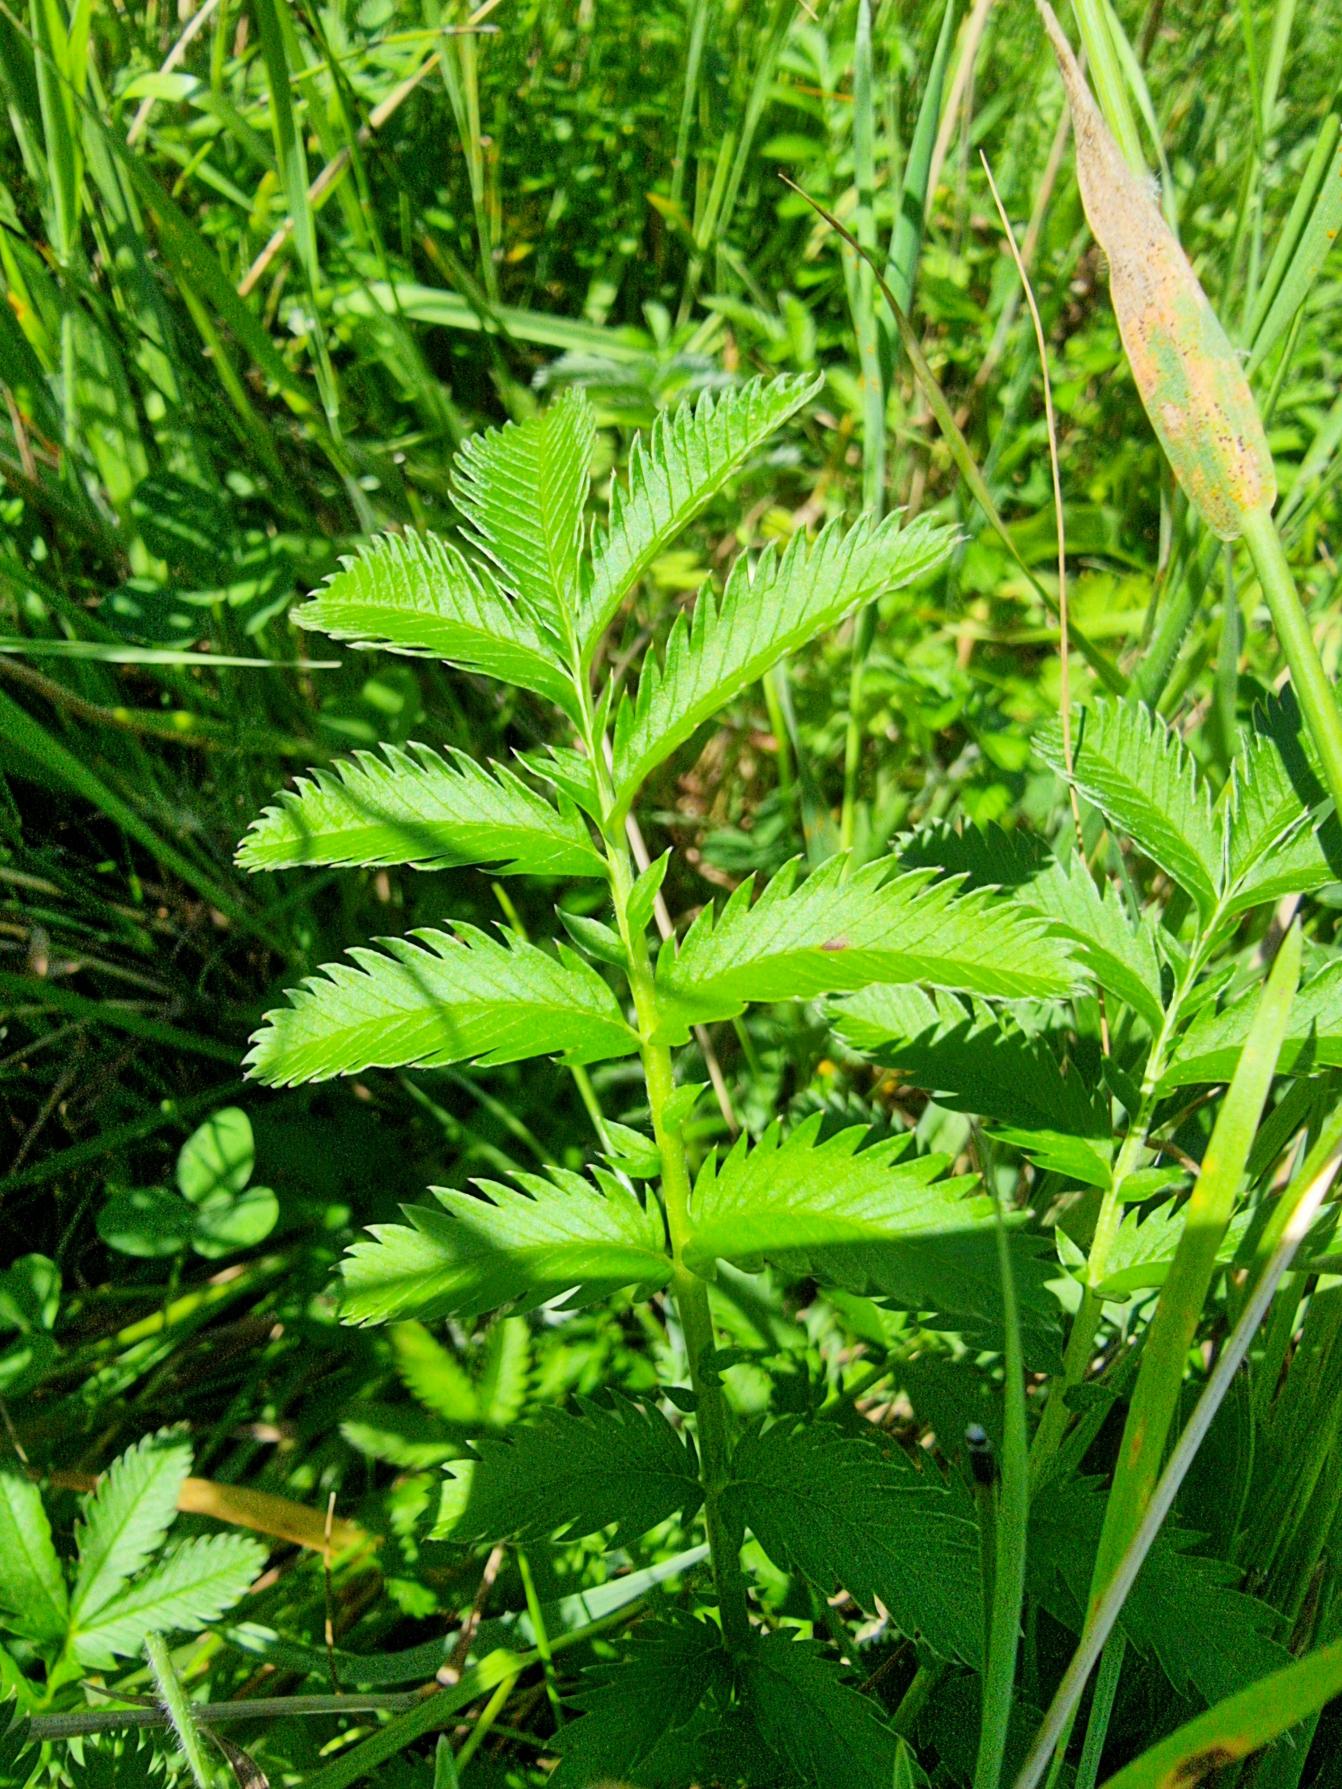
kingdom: Plantae
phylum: Tracheophyta
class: Magnoliopsida
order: Rosales
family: Rosaceae
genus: Argentina
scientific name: Argentina anserina
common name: Gåsepotentil
